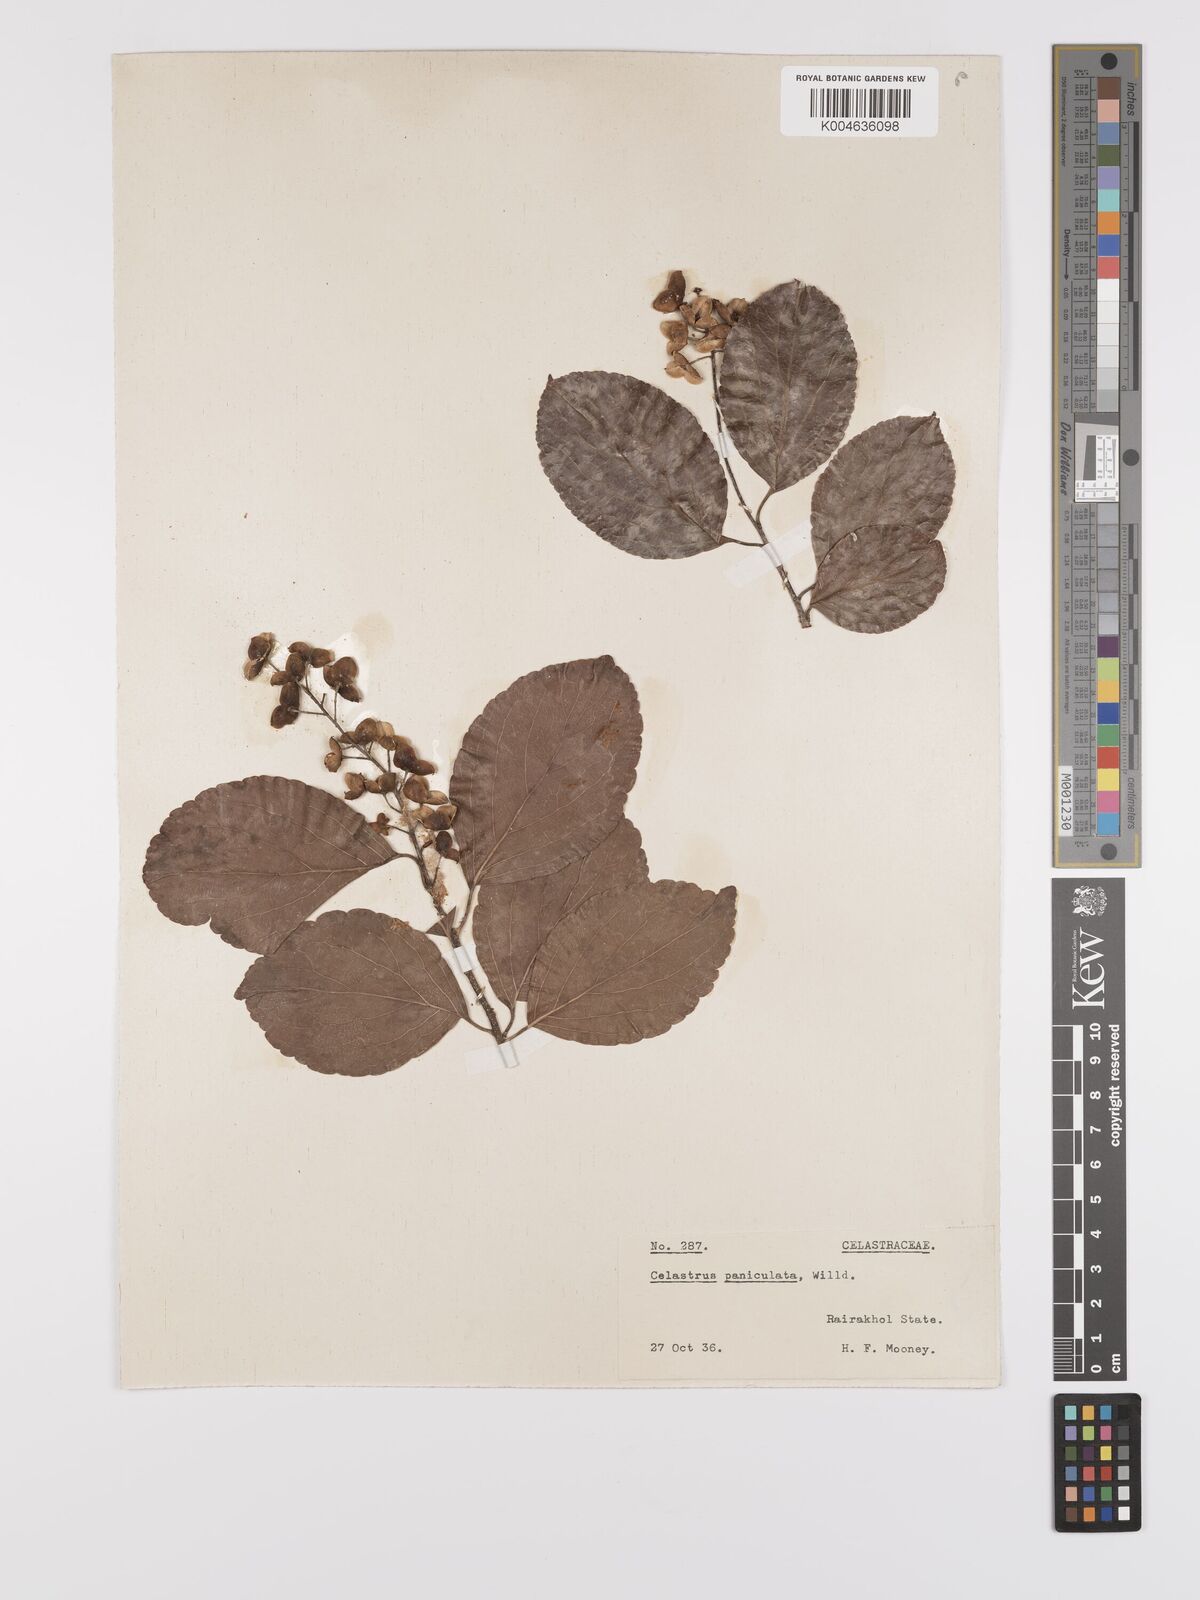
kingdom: Plantae
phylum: Tracheophyta
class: Magnoliopsida
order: Celastrales
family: Celastraceae
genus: Celastrus
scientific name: Celastrus paniculatus
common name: Oriental bittersweet; staff vine
